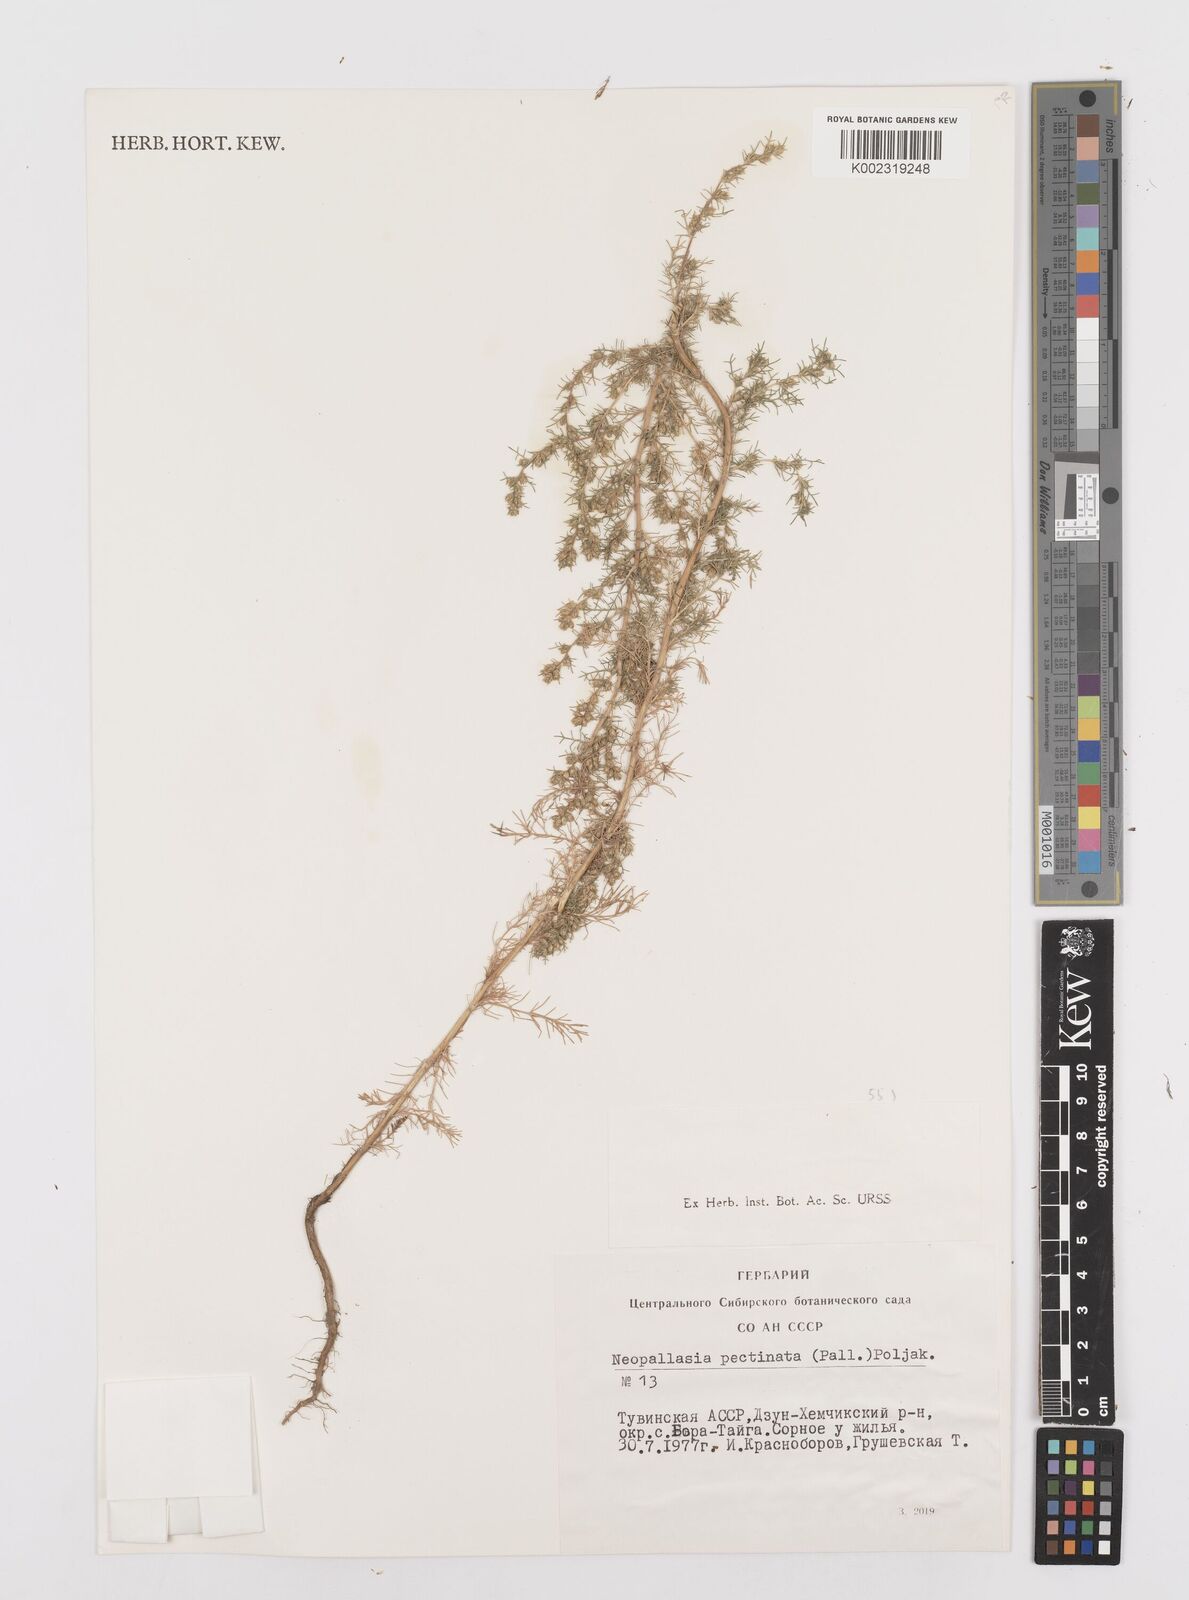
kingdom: Plantae
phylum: Tracheophyta
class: Magnoliopsida
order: Asterales
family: Asteraceae
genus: Neopallasia
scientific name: Neopallasia pectinata
